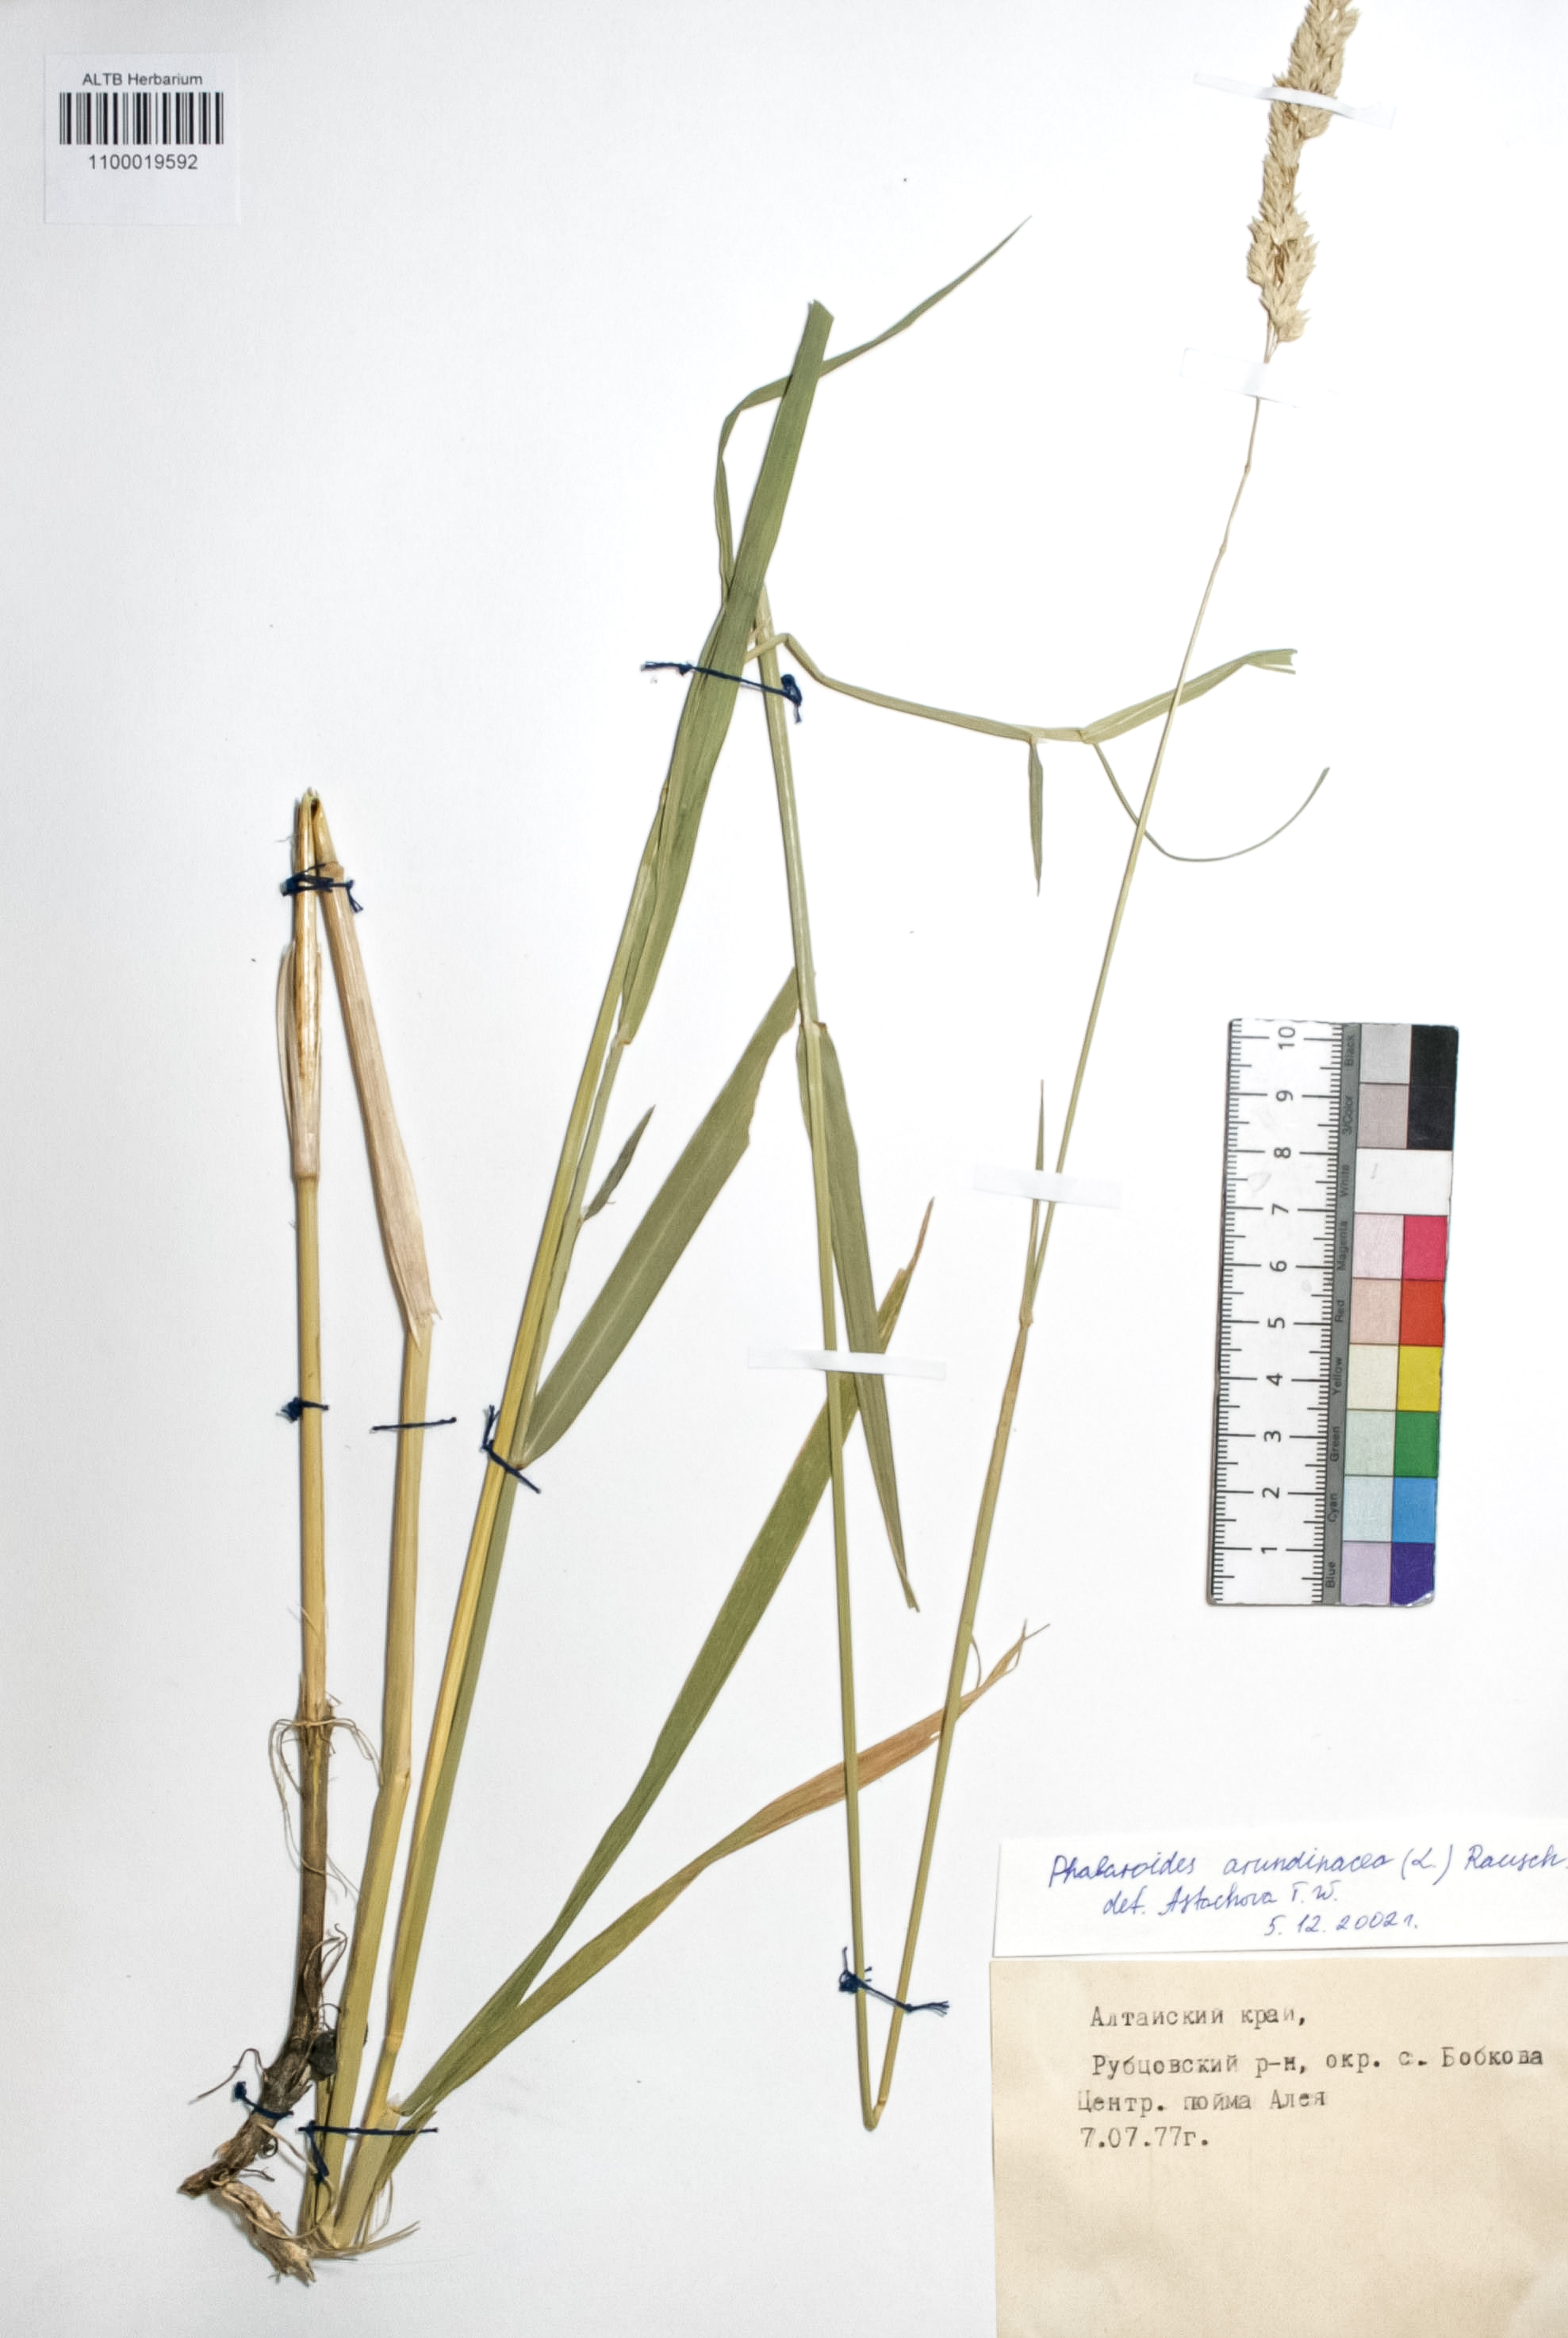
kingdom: Plantae
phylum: Tracheophyta
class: Liliopsida
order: Poales
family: Poaceae
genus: Phalaris
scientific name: Phalaris arundinacea
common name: Reed canary-grass
